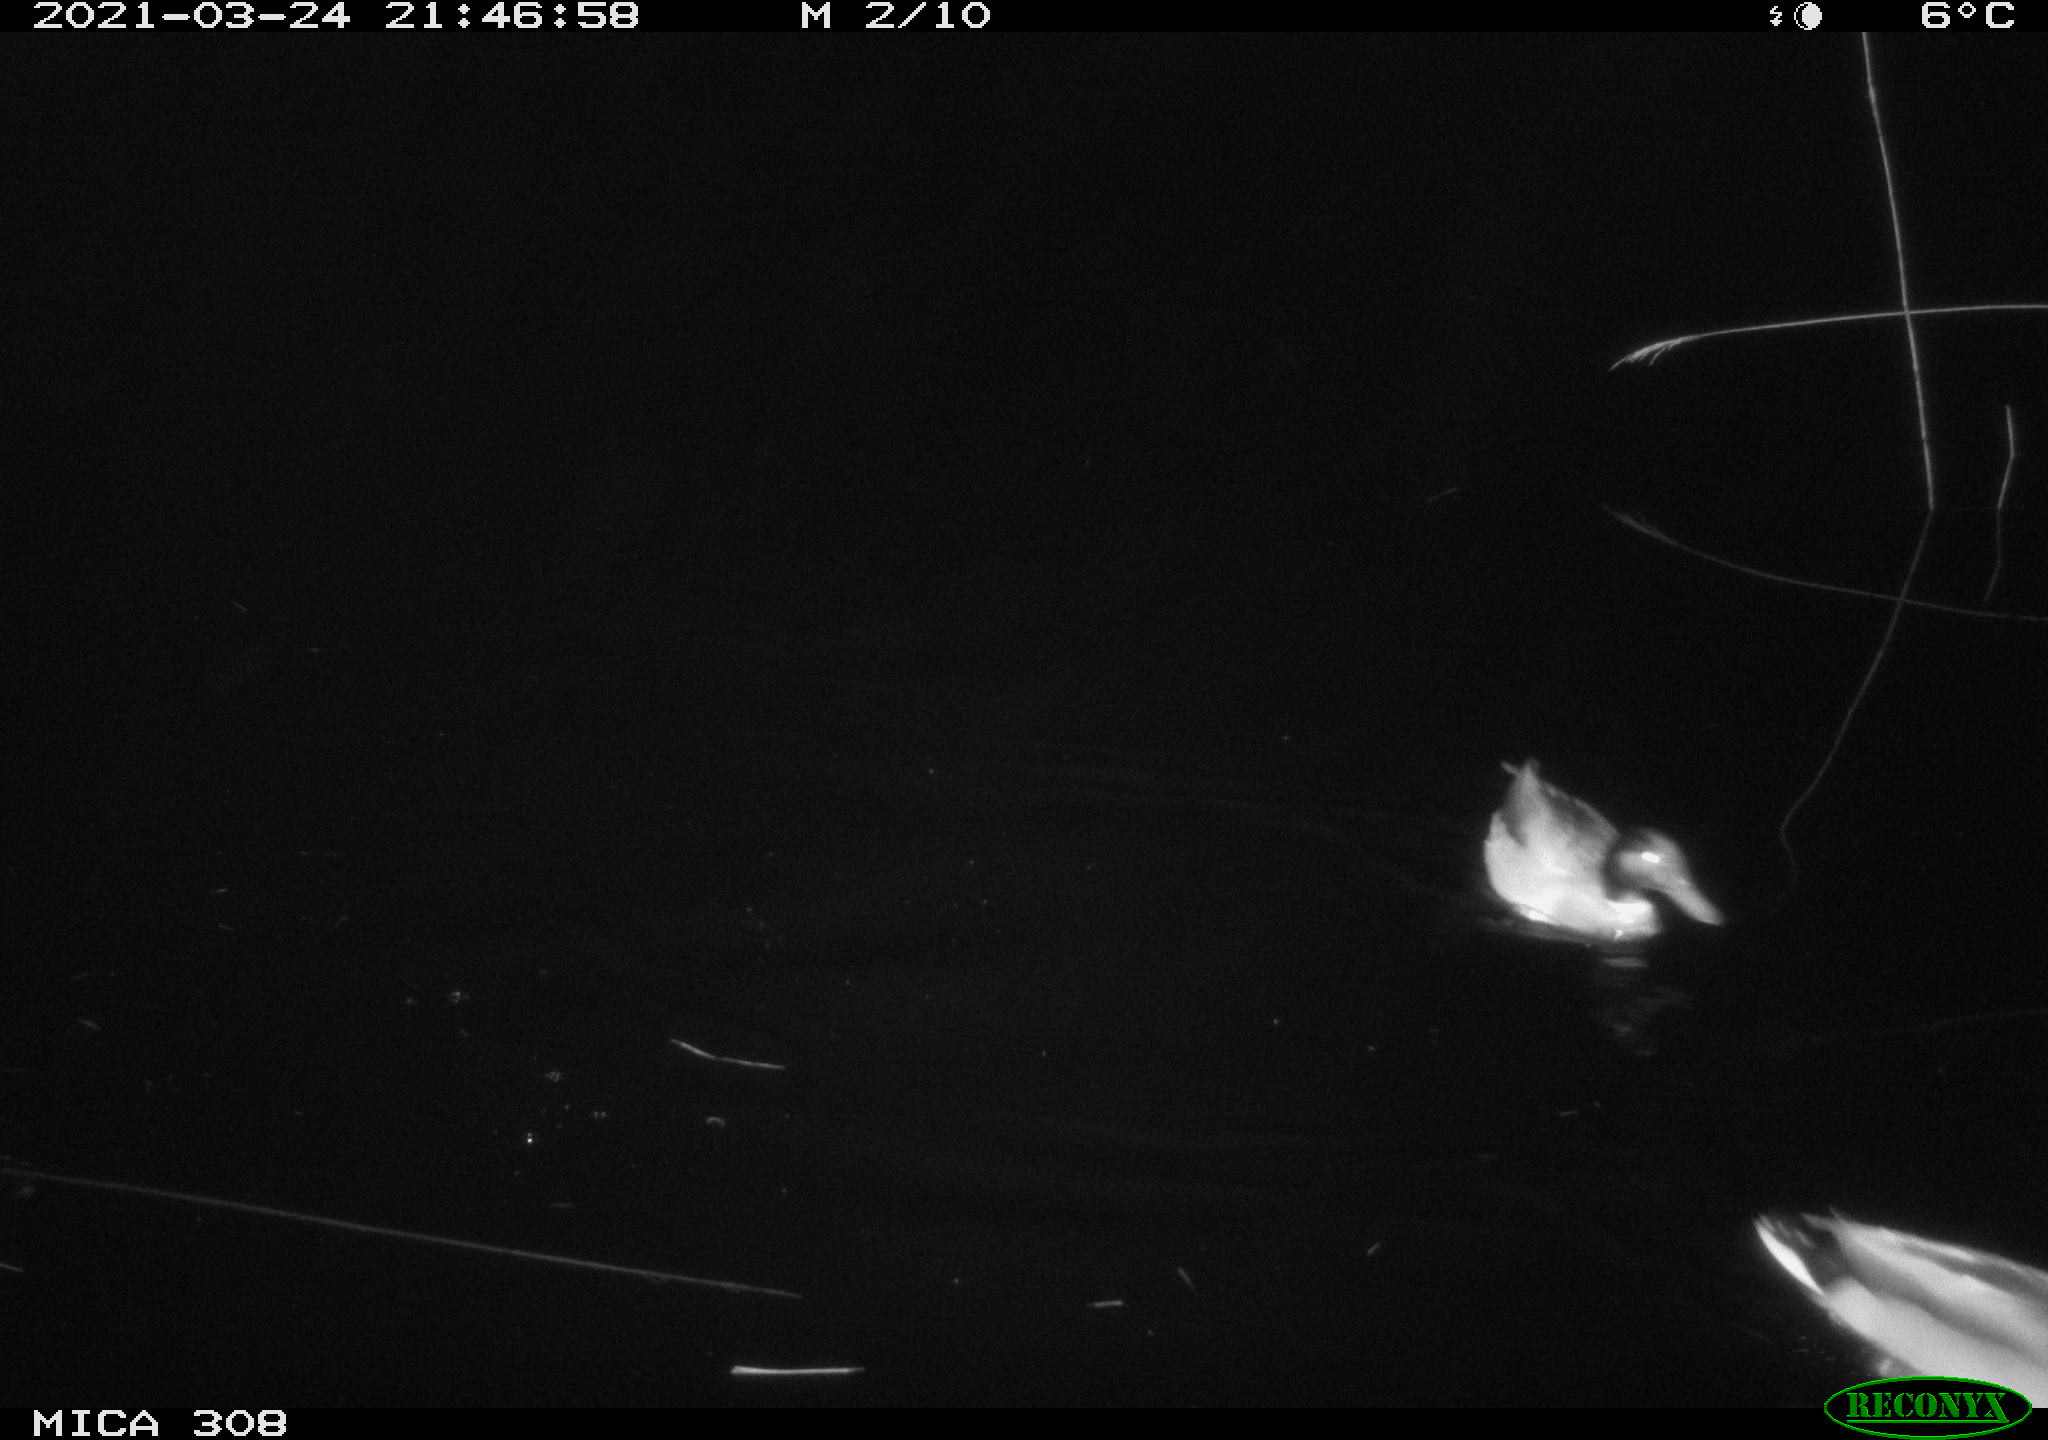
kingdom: Animalia
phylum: Chordata
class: Aves
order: Anseriformes
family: Anatidae
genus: Anas
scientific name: Anas platyrhynchos
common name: Mallard
